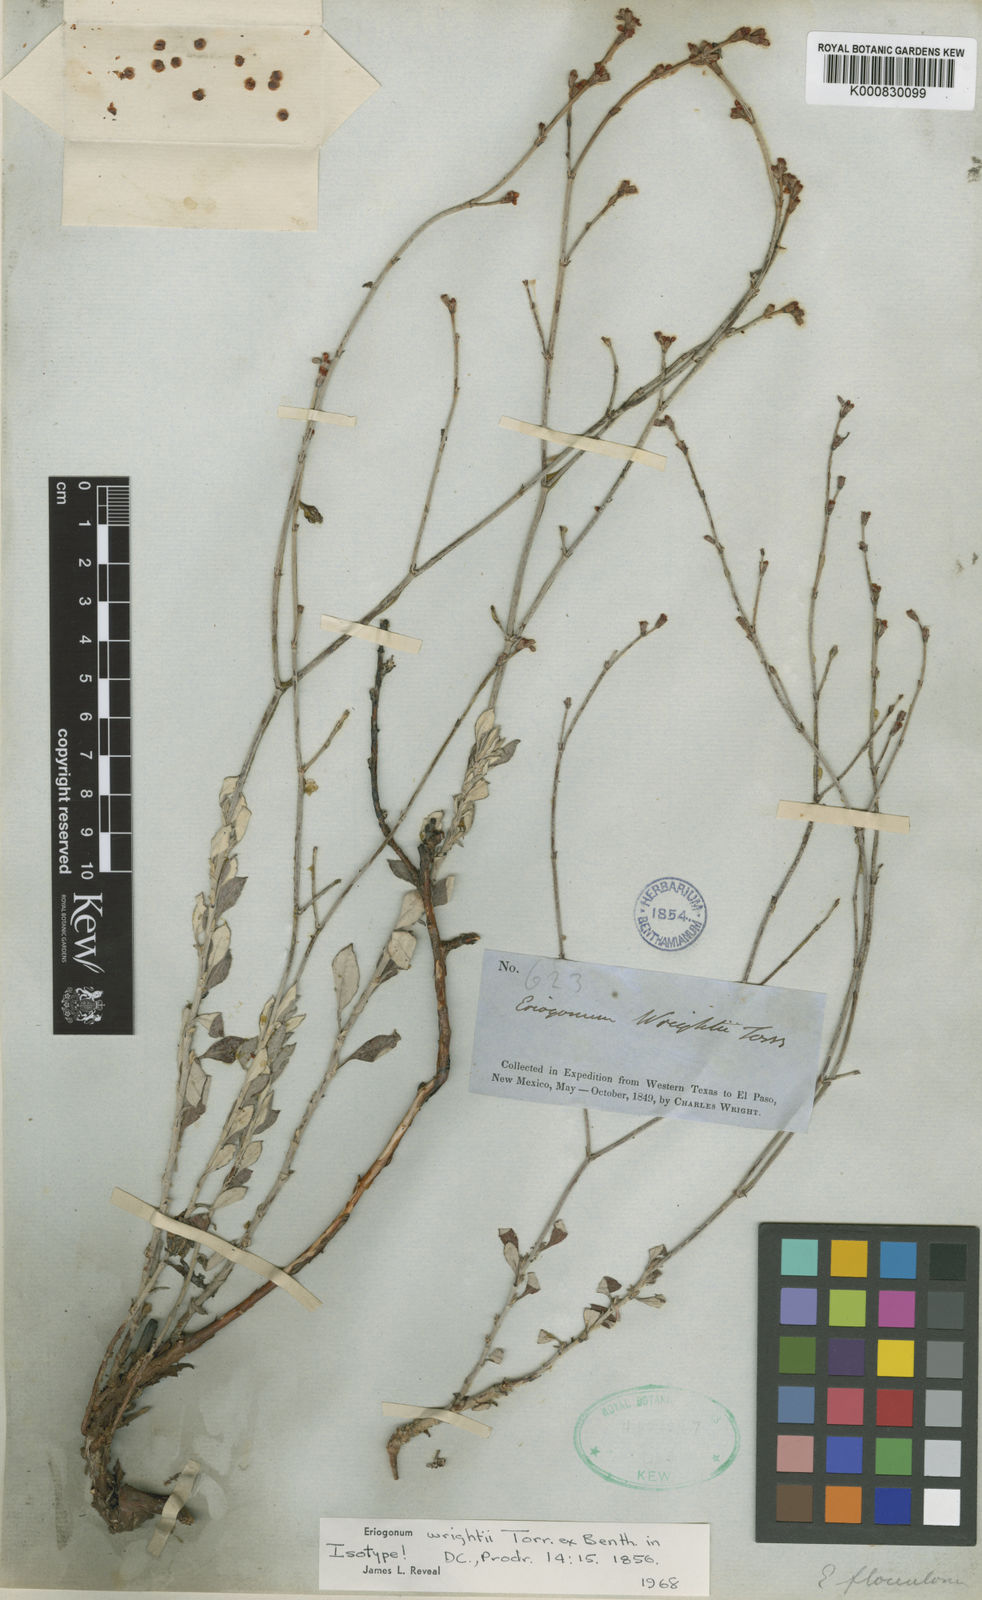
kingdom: Plantae
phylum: Tracheophyta
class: Magnoliopsida
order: Caryophyllales
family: Polygonaceae
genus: Eriogonum
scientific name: Eriogonum wrightii
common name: Bastard-sage
